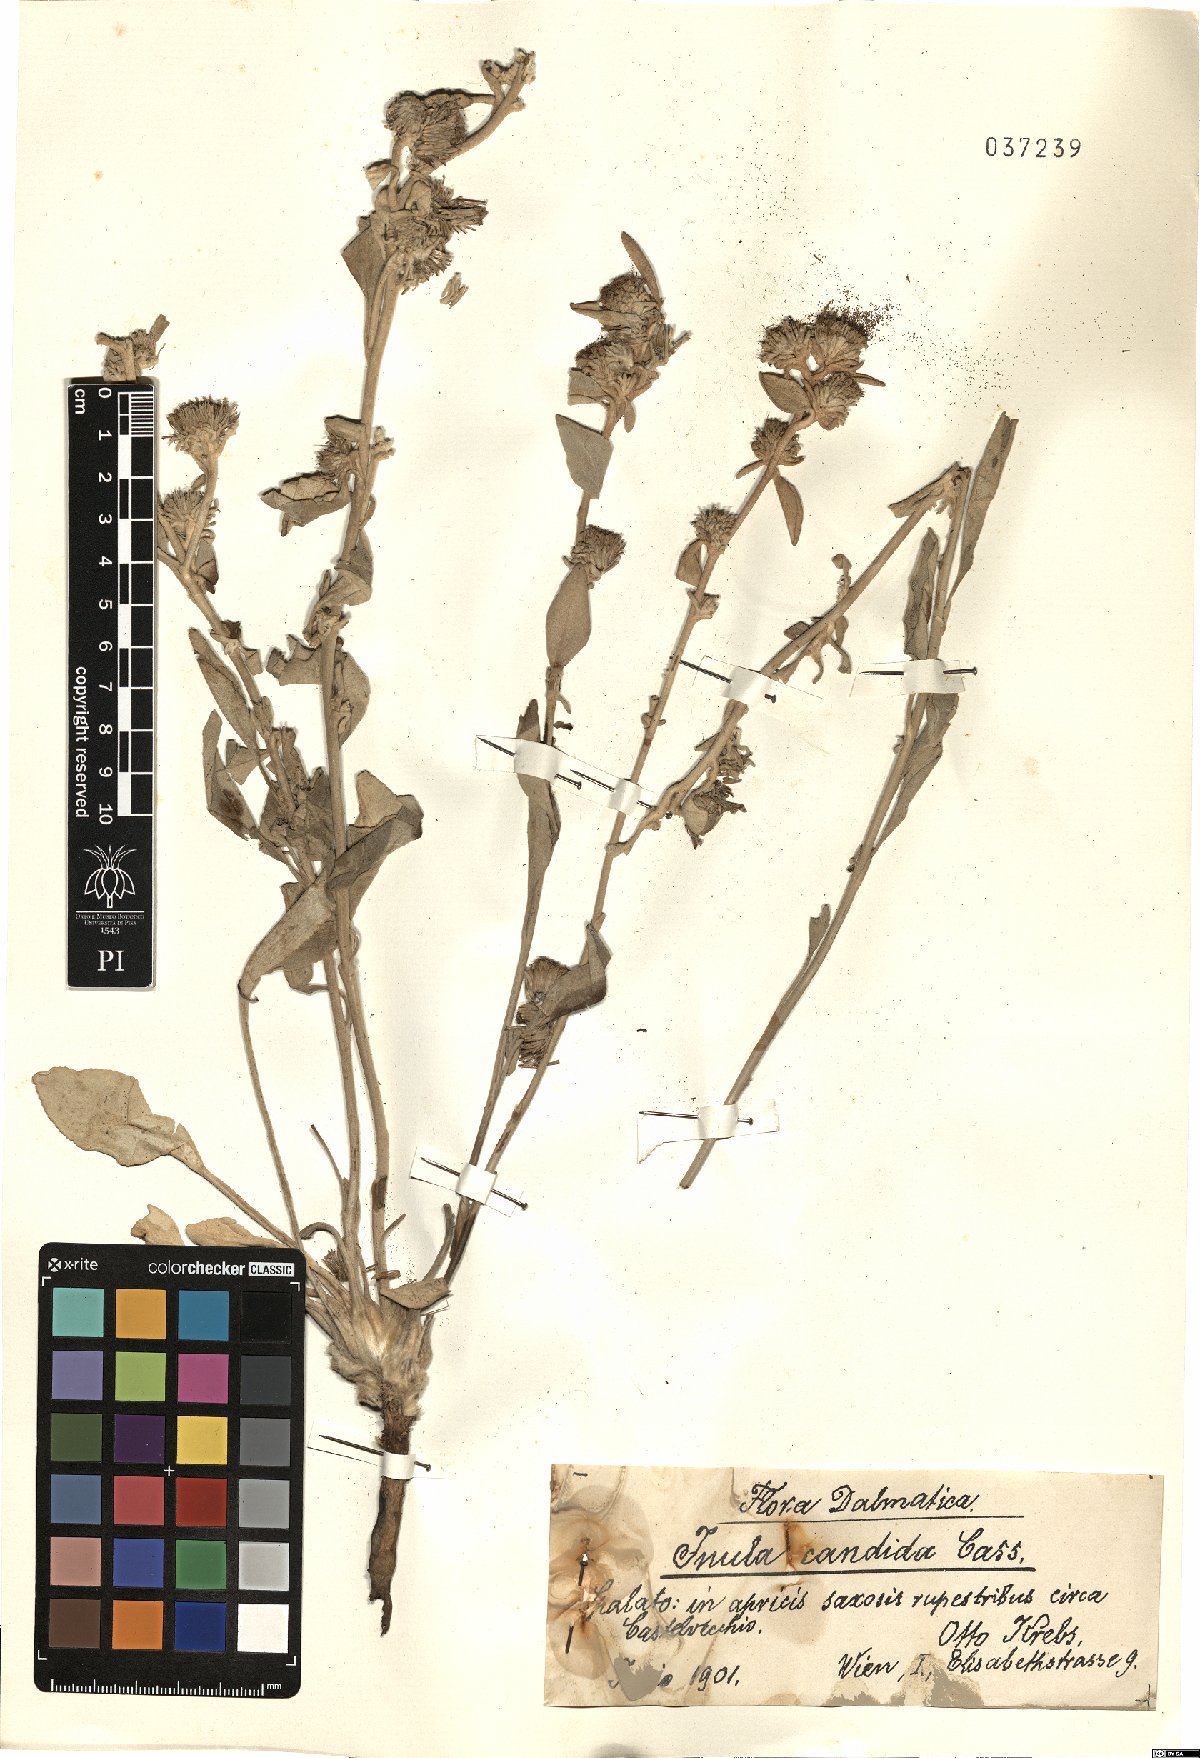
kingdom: Plantae
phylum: Tracheophyta
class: Magnoliopsida
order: Asterales
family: Asteraceae
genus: Inula
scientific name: Inula candida
